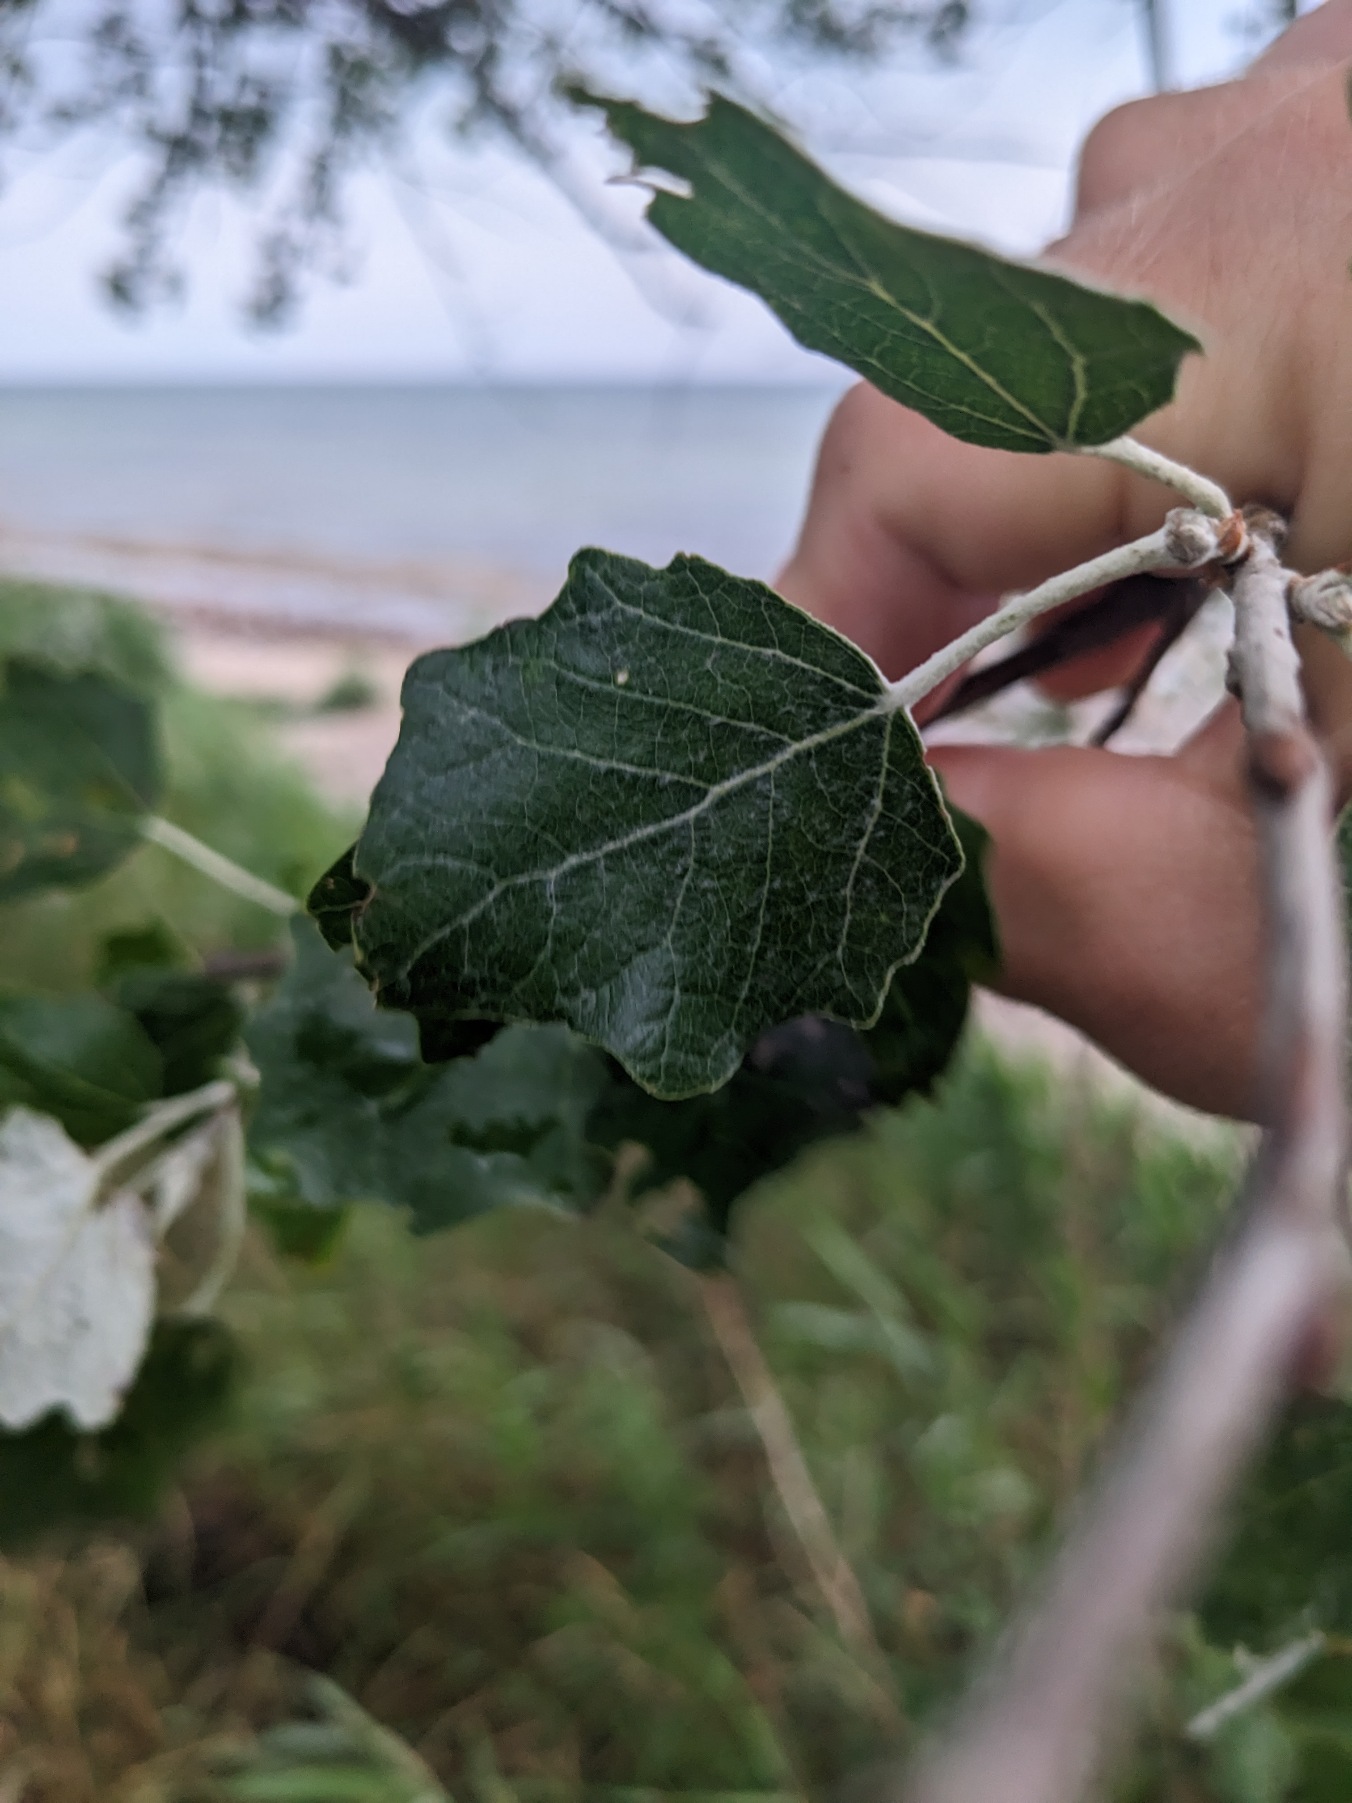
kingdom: Plantae
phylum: Tracheophyta
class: Magnoliopsida
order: Malpighiales
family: Salicaceae
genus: Populus
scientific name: Populus canescens
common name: Grå-poppel
